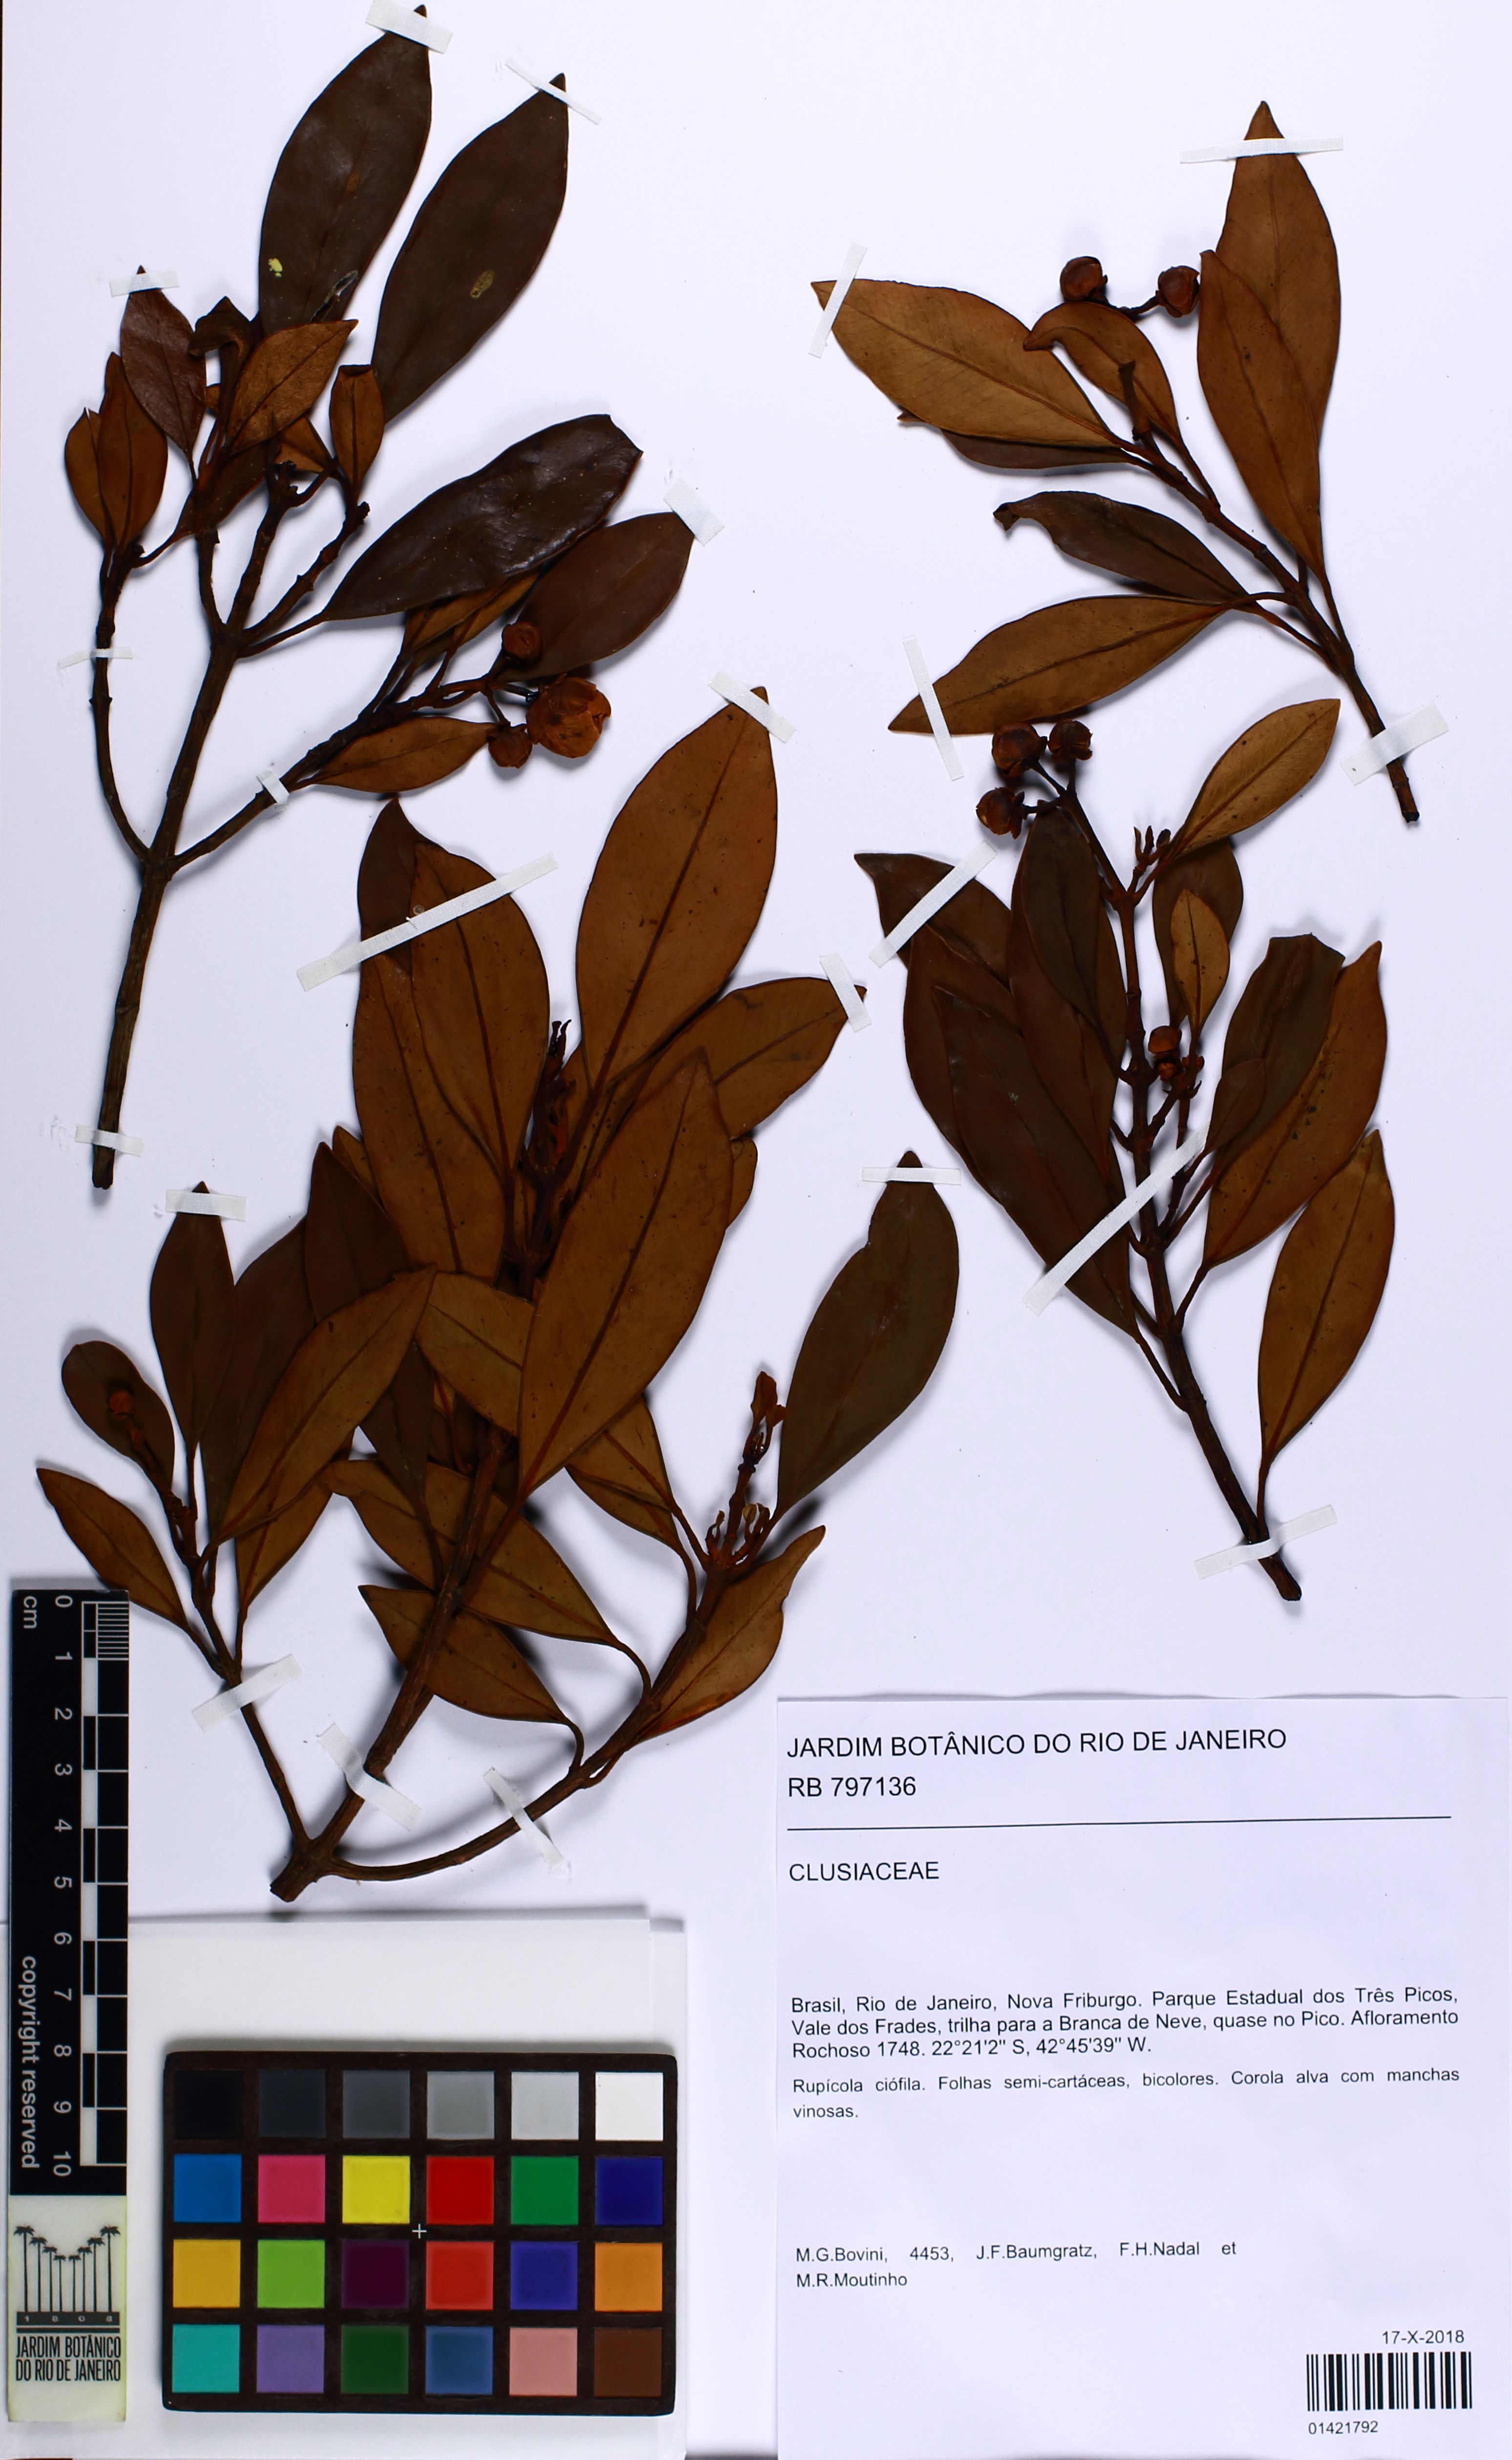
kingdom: Plantae
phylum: Tracheophyta
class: Magnoliopsida
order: Malpighiales
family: Clusiaceae
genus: Clusia
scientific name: Clusia immersa
